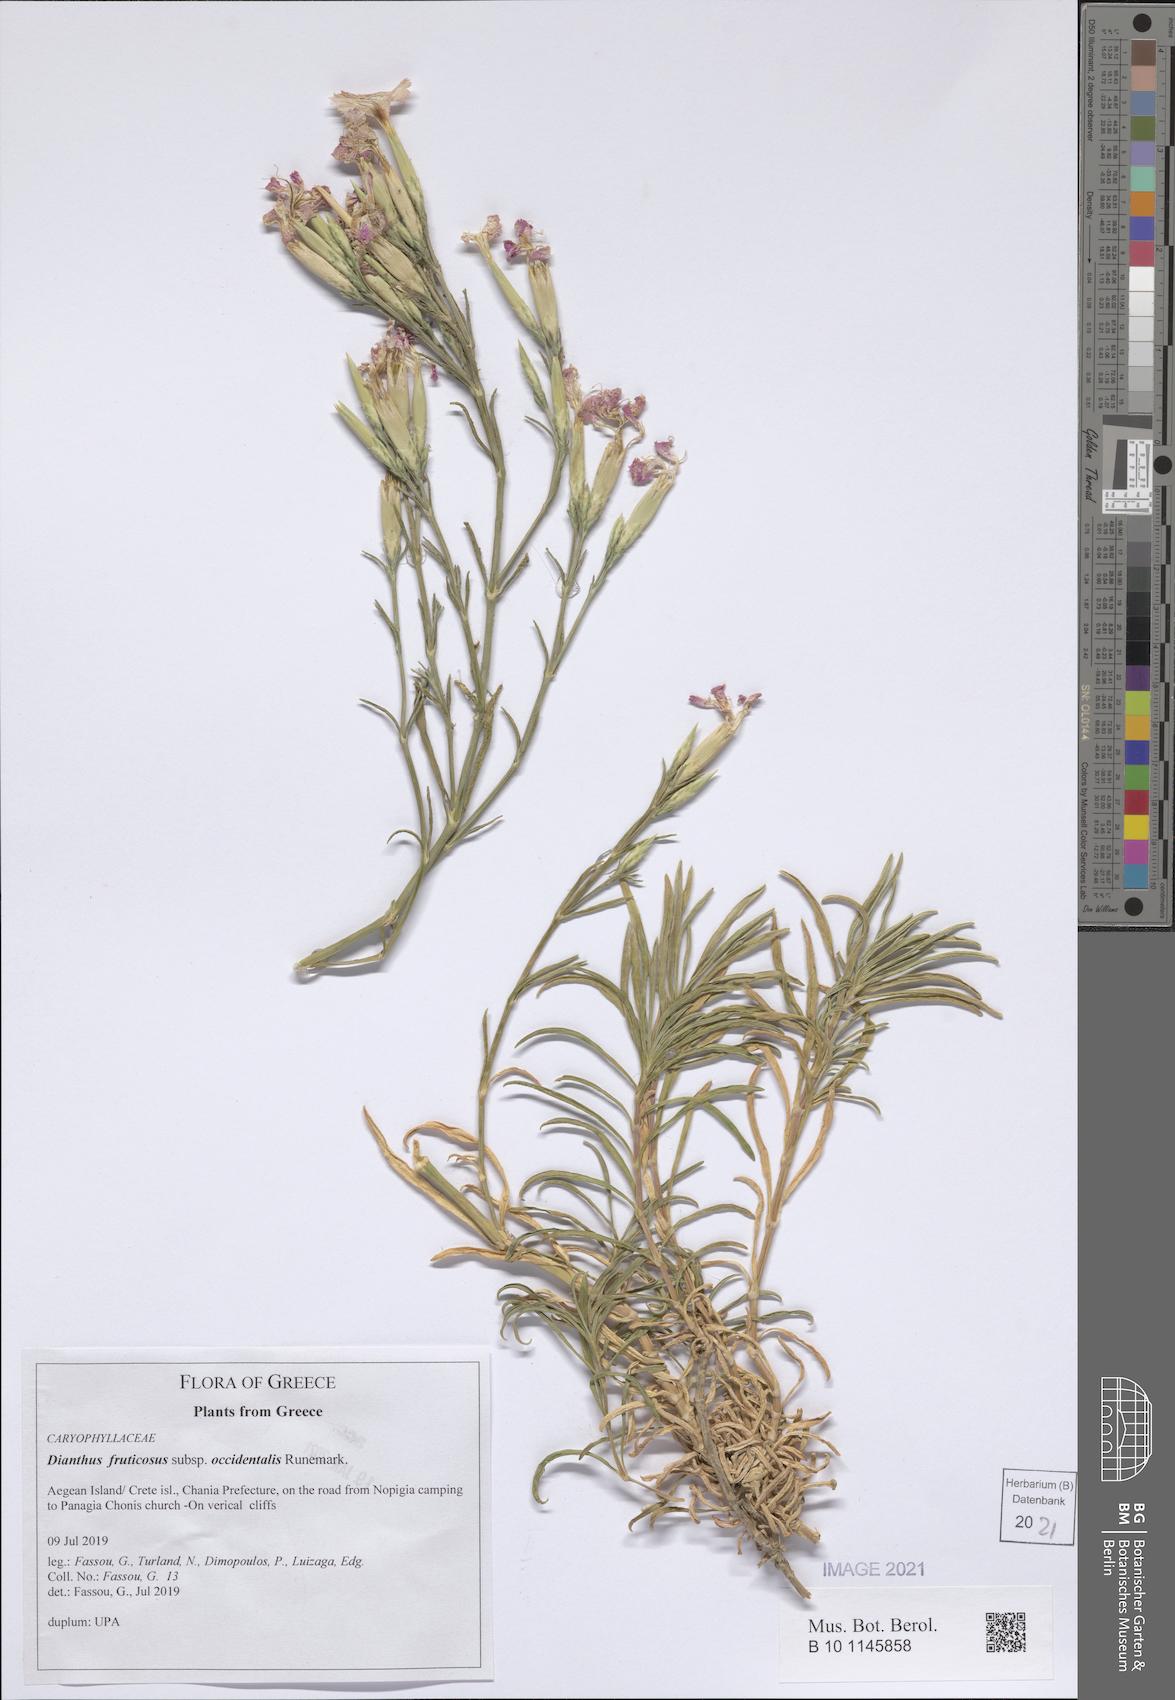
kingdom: Plantae
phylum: Tracheophyta
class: Magnoliopsida
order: Caryophyllales
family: Caryophyllaceae
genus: Dianthus
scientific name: Dianthus fruticosus
